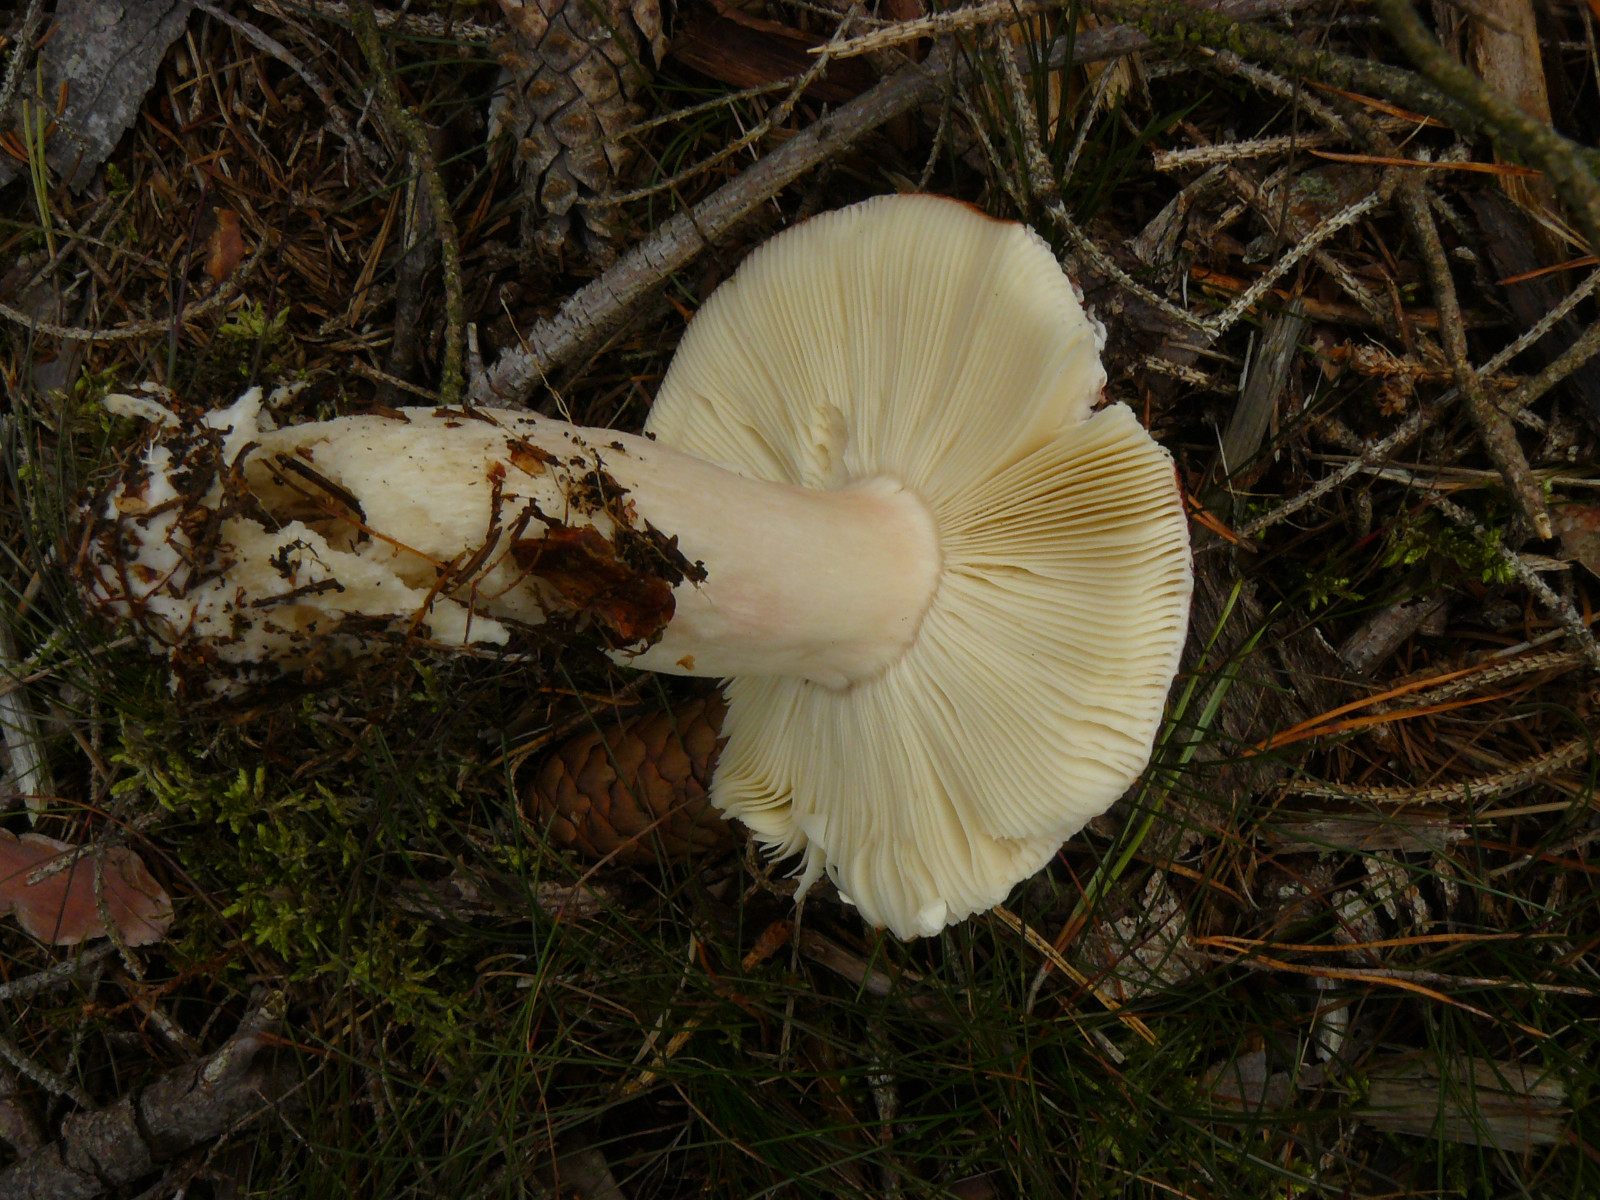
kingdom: Fungi
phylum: Basidiomycota
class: Agaricomycetes
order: Russulales
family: Russulaceae
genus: Russula
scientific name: Russula paludosa
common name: prægtig skørhat
